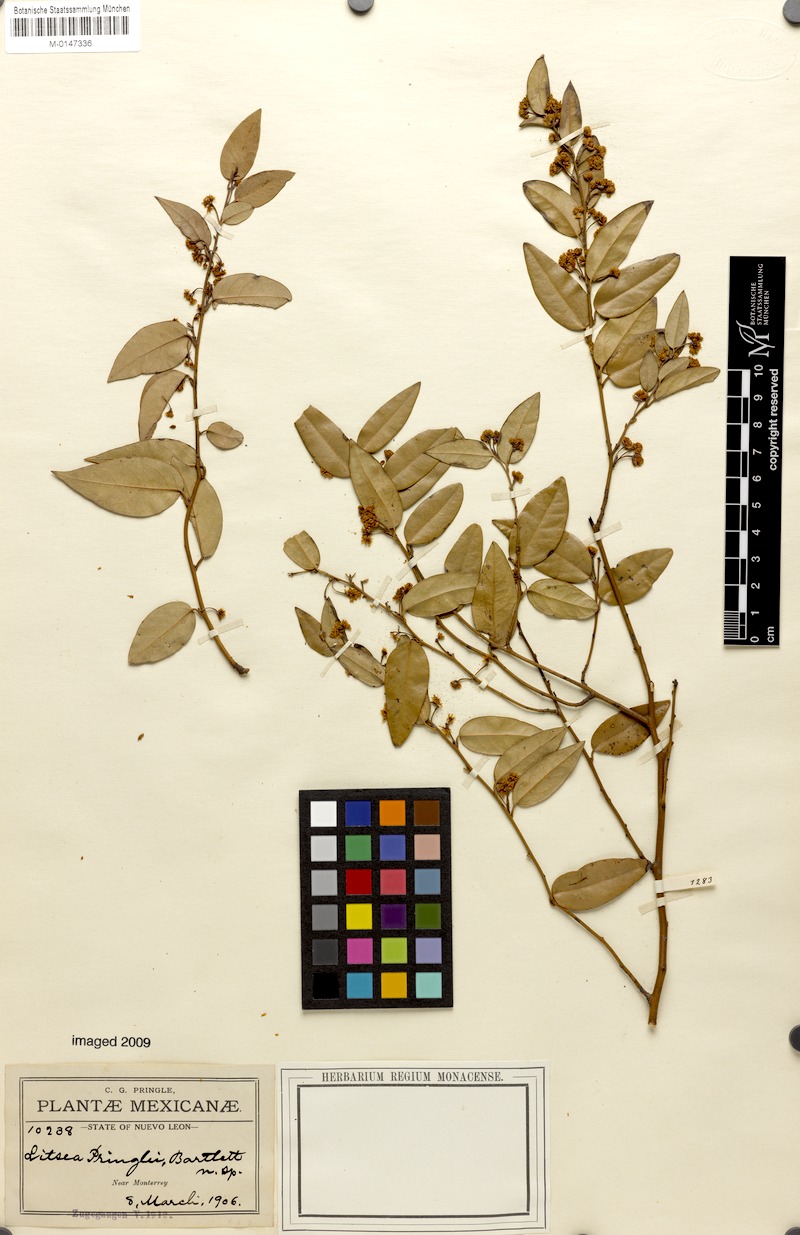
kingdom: Plantae
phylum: Tracheophyta
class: Magnoliopsida
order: Laurales
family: Lauraceae
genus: Licaria
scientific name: Licaria triandra
